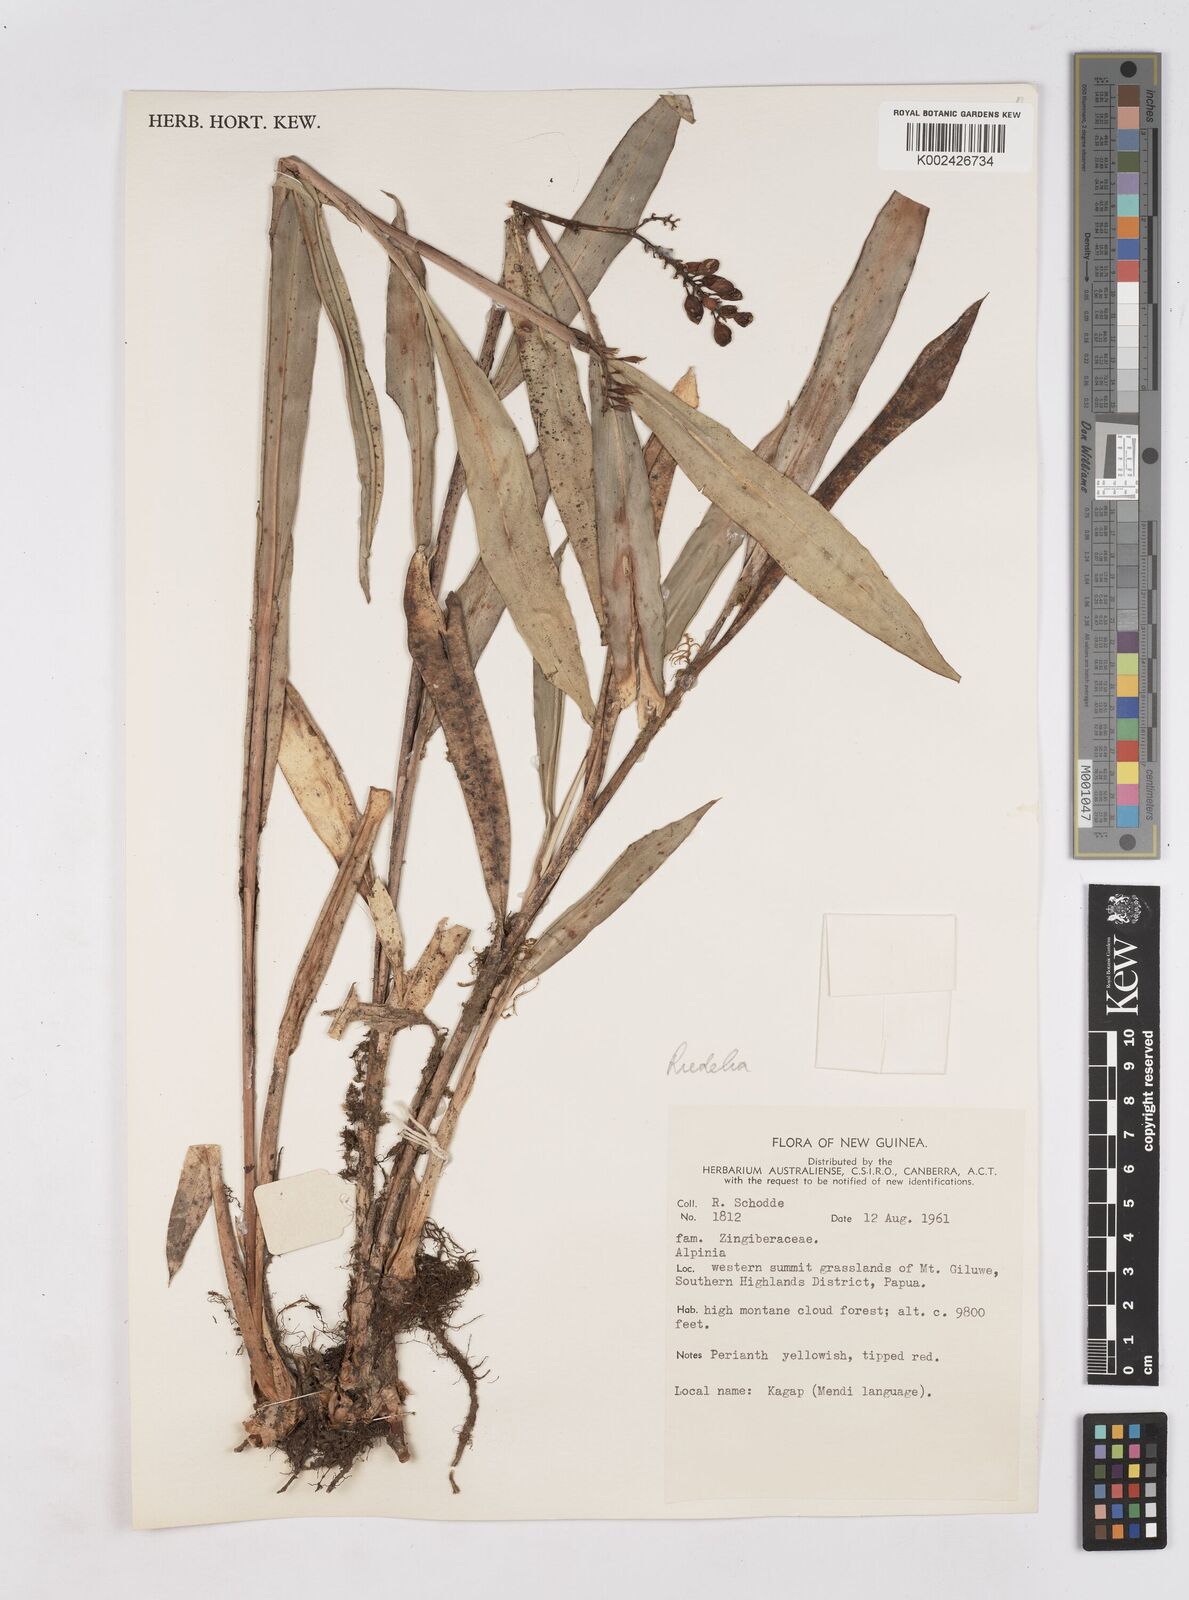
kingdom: Plantae
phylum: Tracheophyta
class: Liliopsida
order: Zingiberales
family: Zingiberaceae
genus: Riedelia
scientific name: Riedelia
